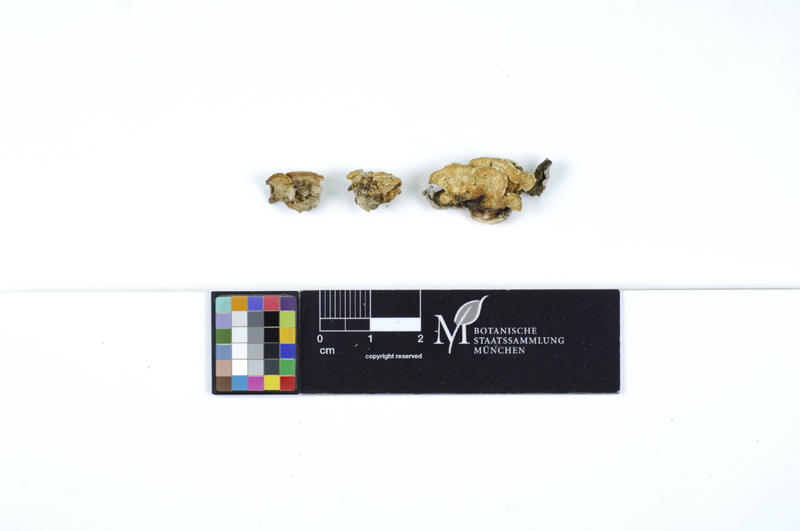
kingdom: Plantae
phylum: Tracheophyta
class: Magnoliopsida
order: Malpighiales
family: Salicaceae
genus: Salix
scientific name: Salix cinerea
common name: Common sallow
